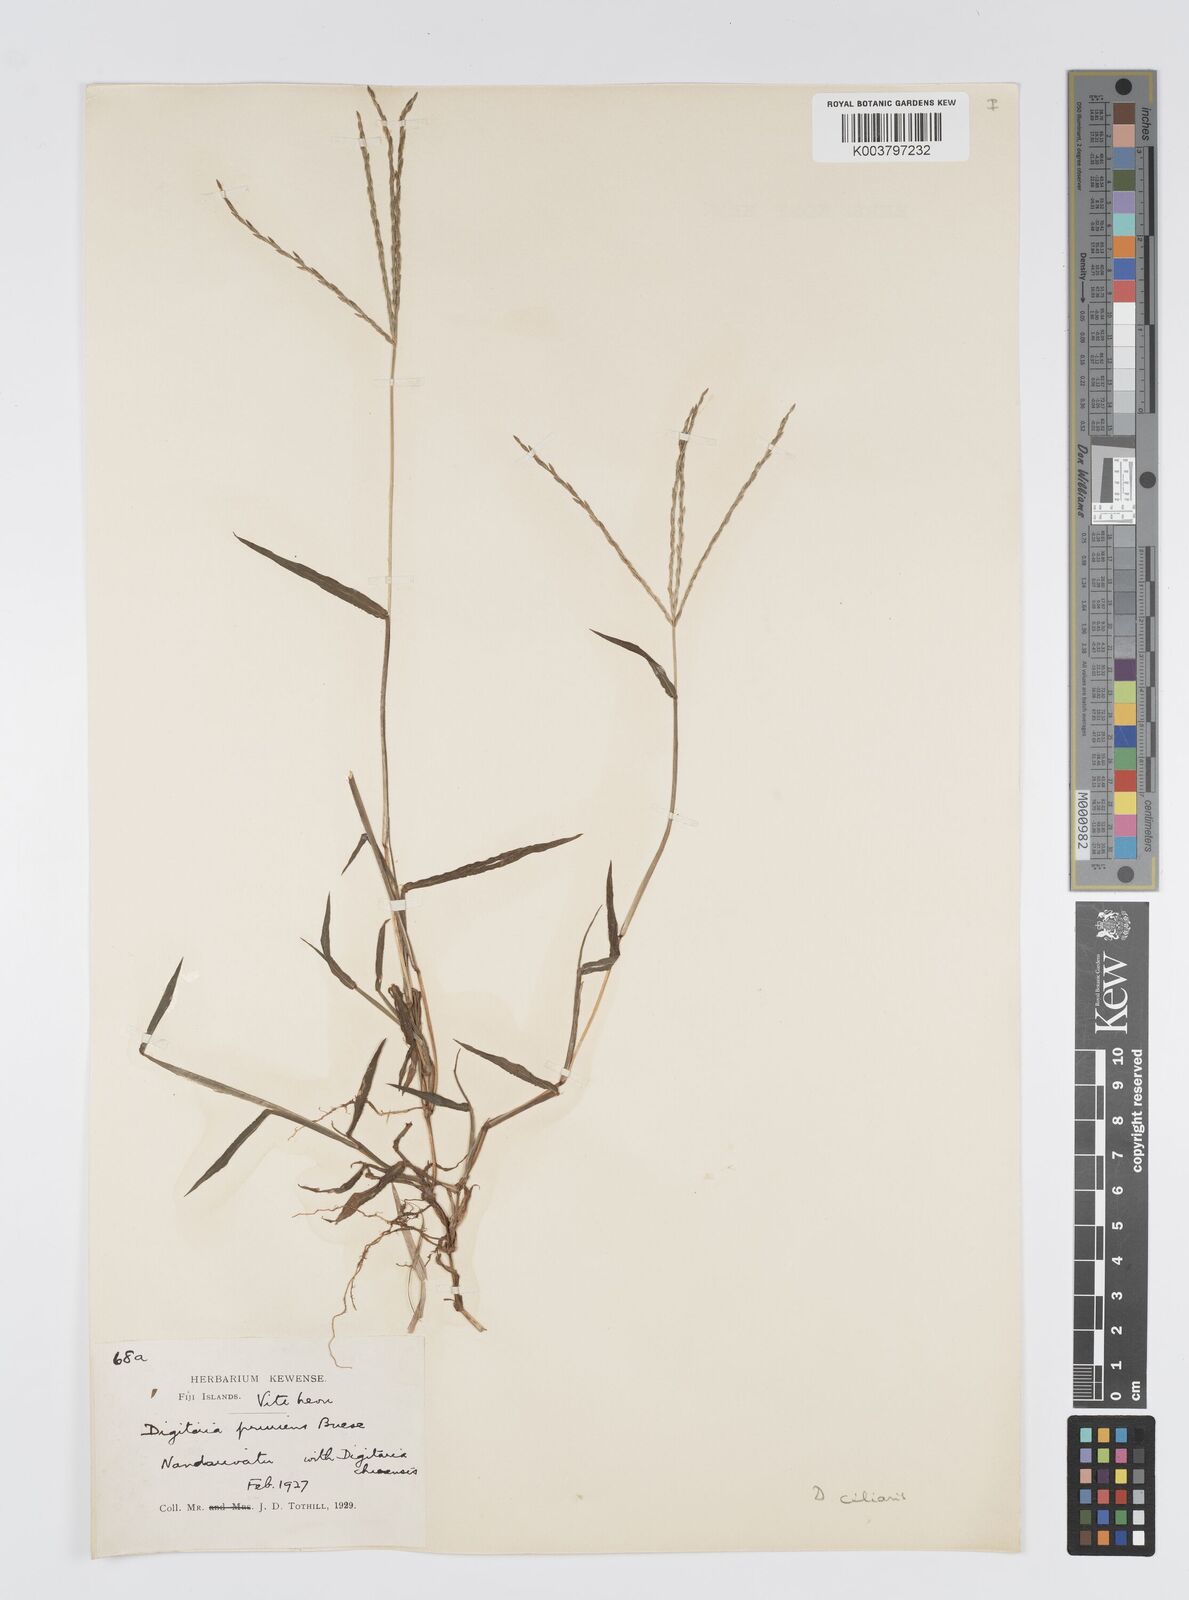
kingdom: Plantae
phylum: Tracheophyta
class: Liliopsida
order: Poales
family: Poaceae
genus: Digitaria
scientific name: Digitaria ciliaris
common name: Tropical finger-grass
